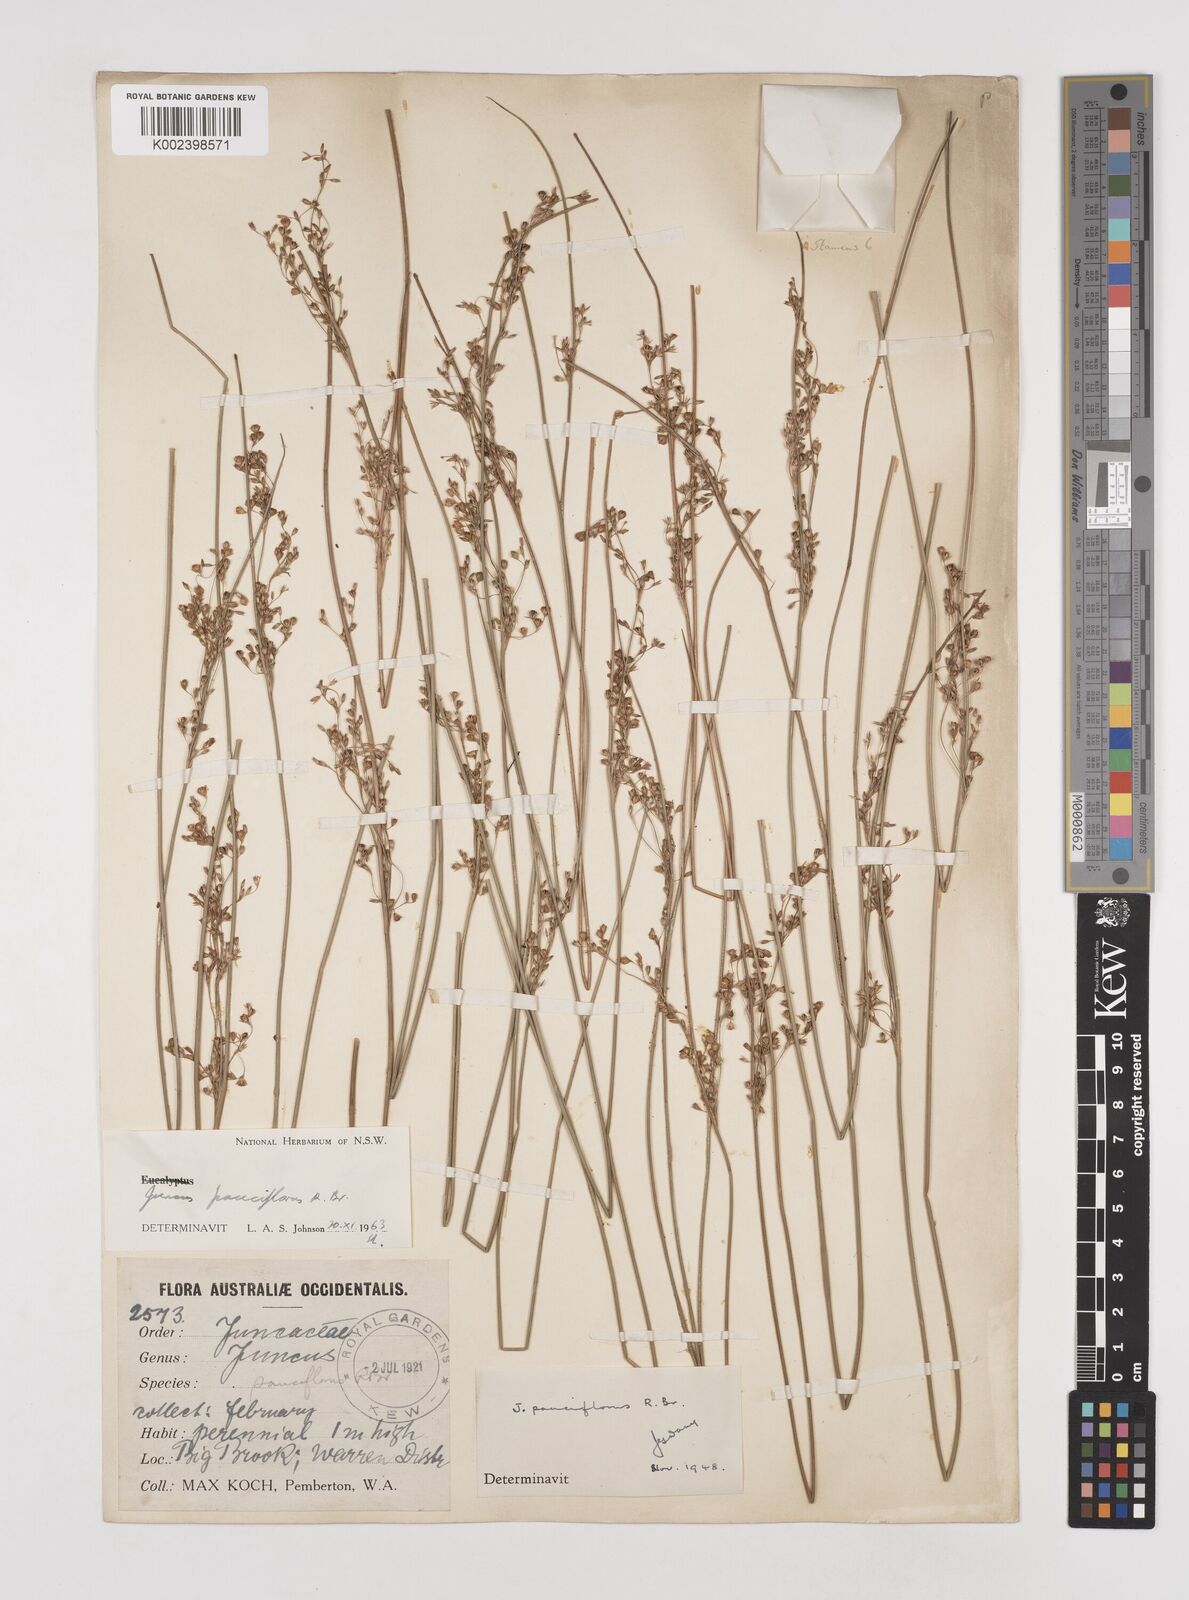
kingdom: Plantae
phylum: Tracheophyta
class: Liliopsida
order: Poales
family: Juncaceae
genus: Juncus
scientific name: Juncus pauciflorus
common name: Loose-flowered rush
